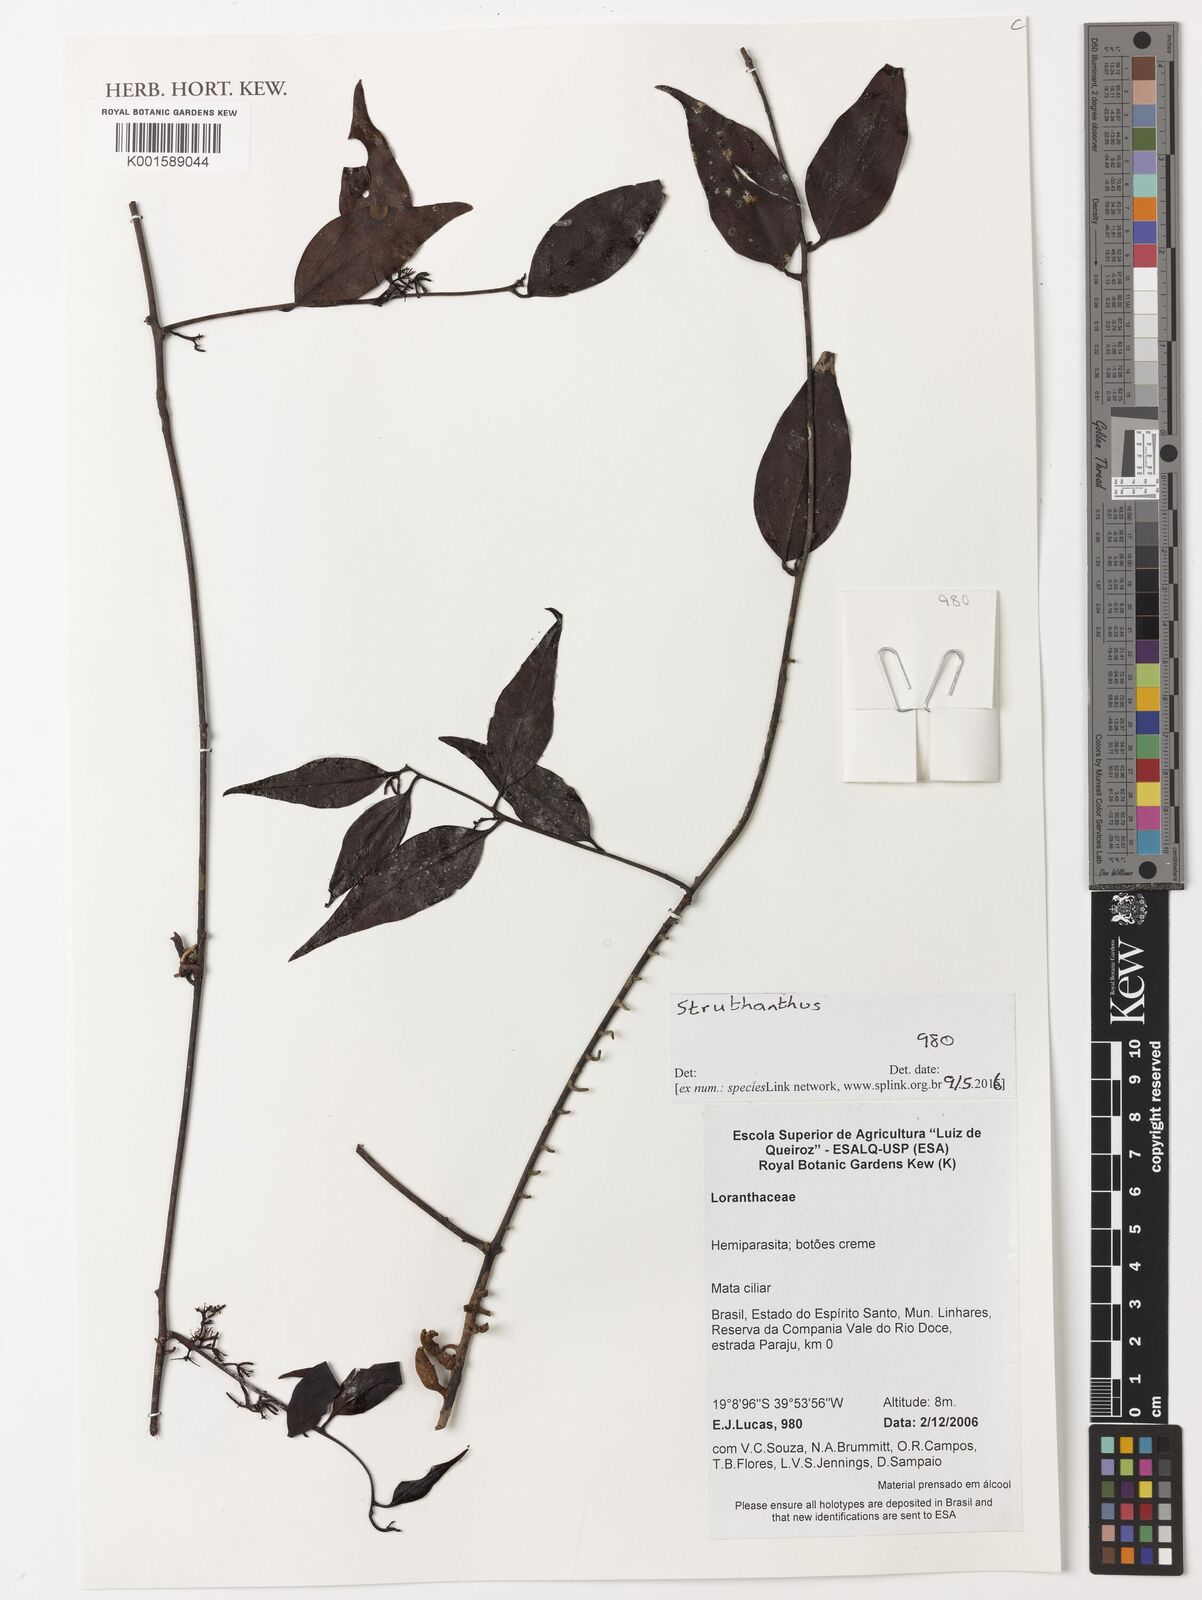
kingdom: Plantae
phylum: Tracheophyta
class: Magnoliopsida
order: Santalales
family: Loranthaceae
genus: Struthanthus
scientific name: Struthanthus
